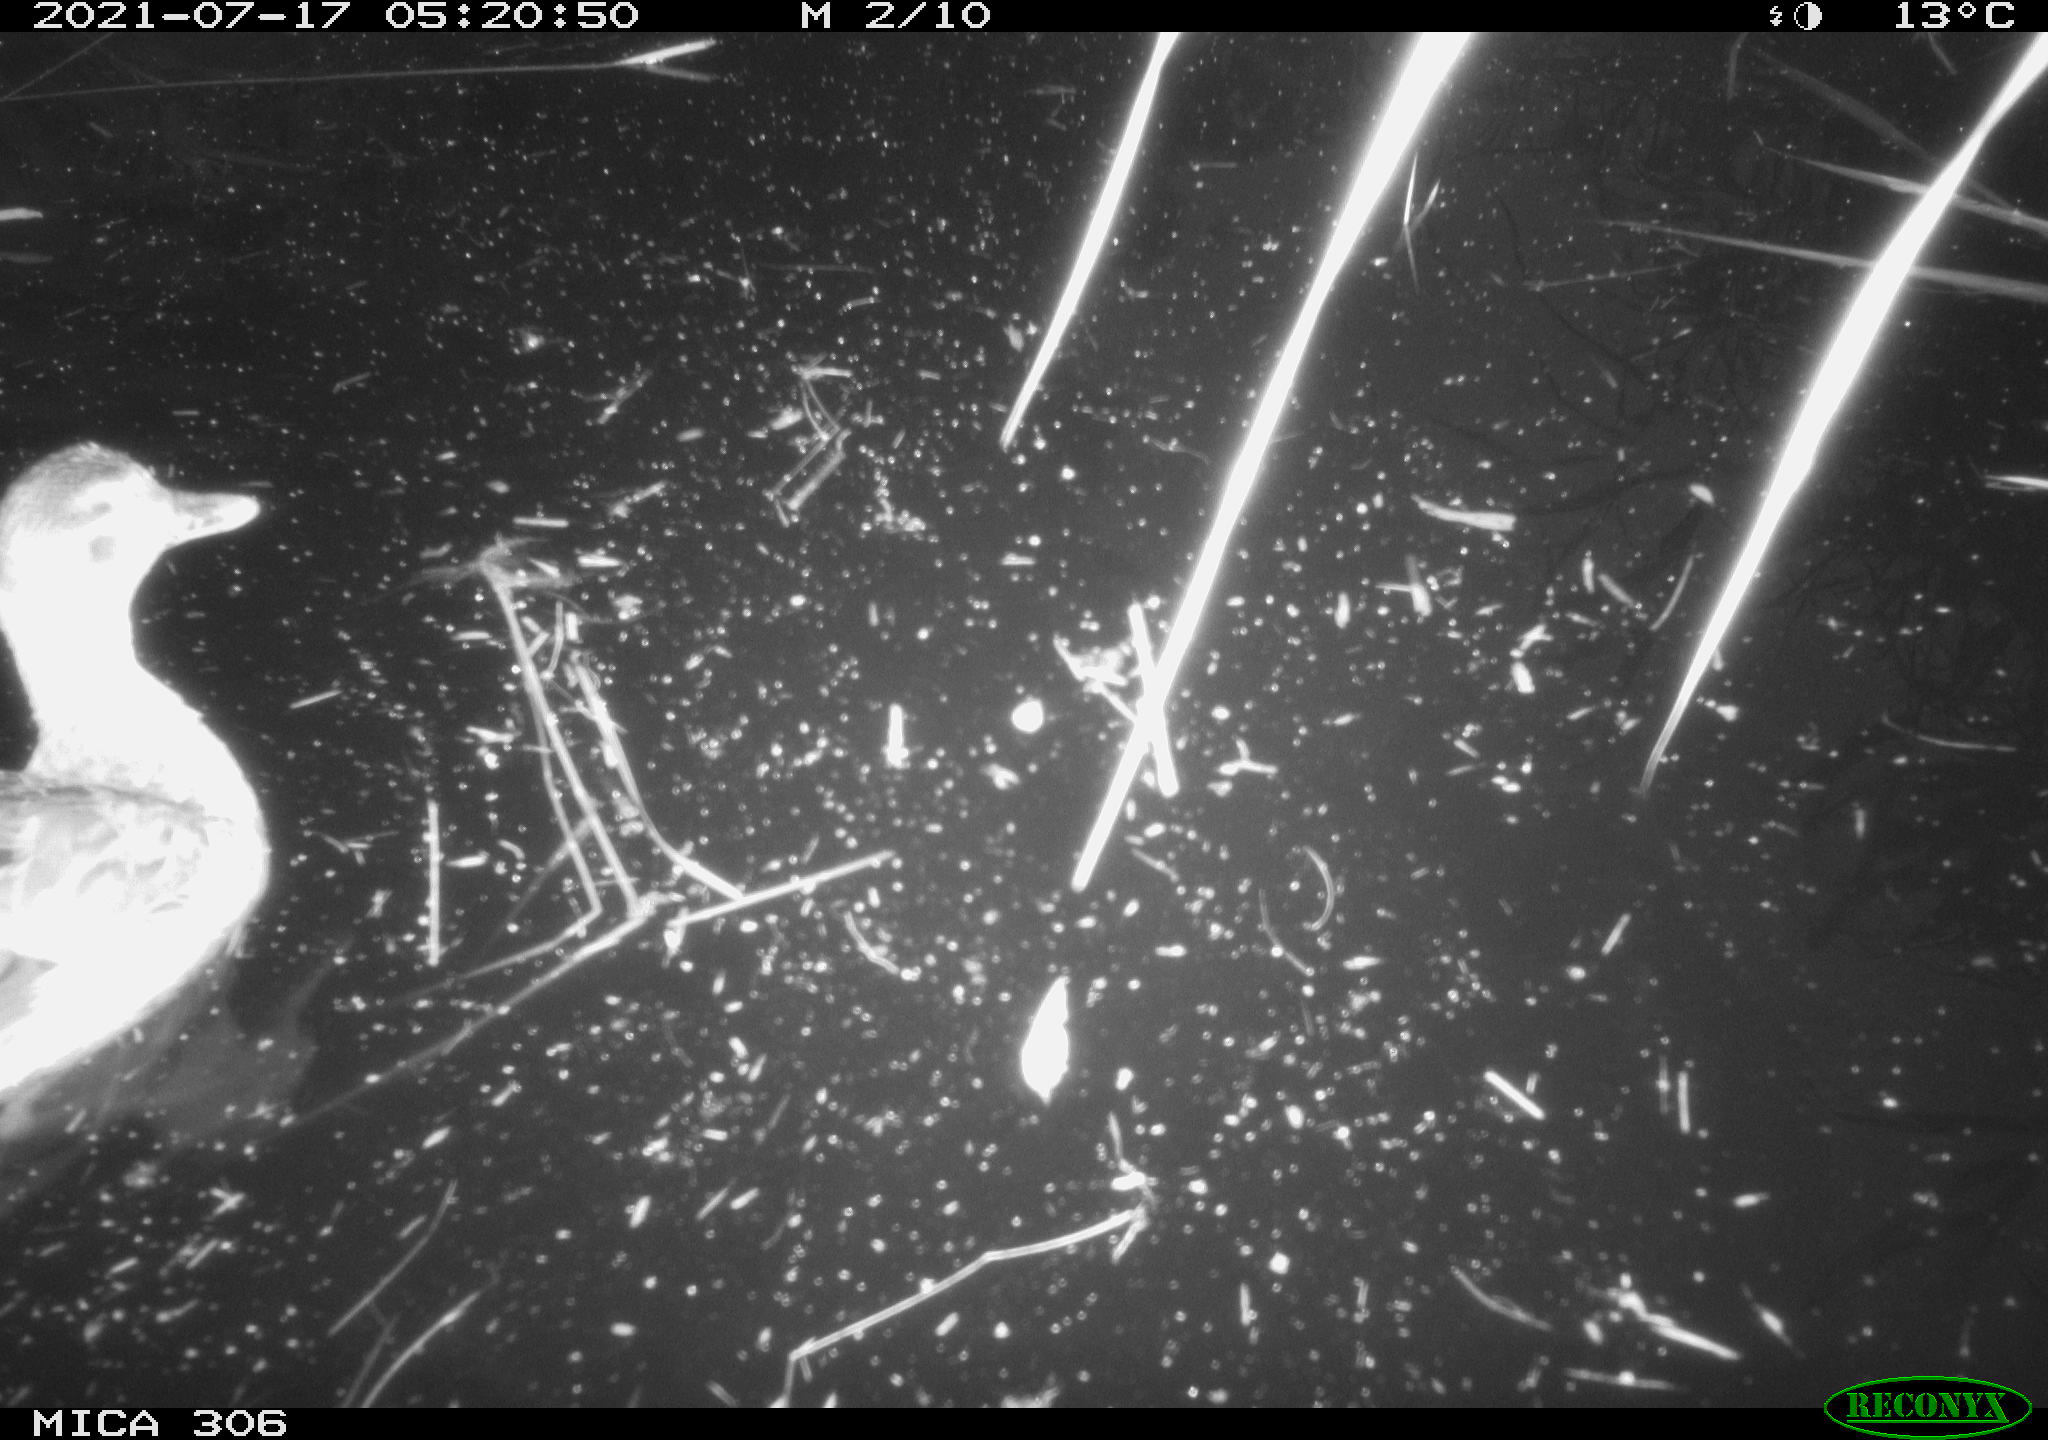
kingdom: Animalia
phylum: Chordata
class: Aves
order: Anseriformes
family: Anatidae
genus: Anas
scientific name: Anas platyrhynchos
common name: Mallard
